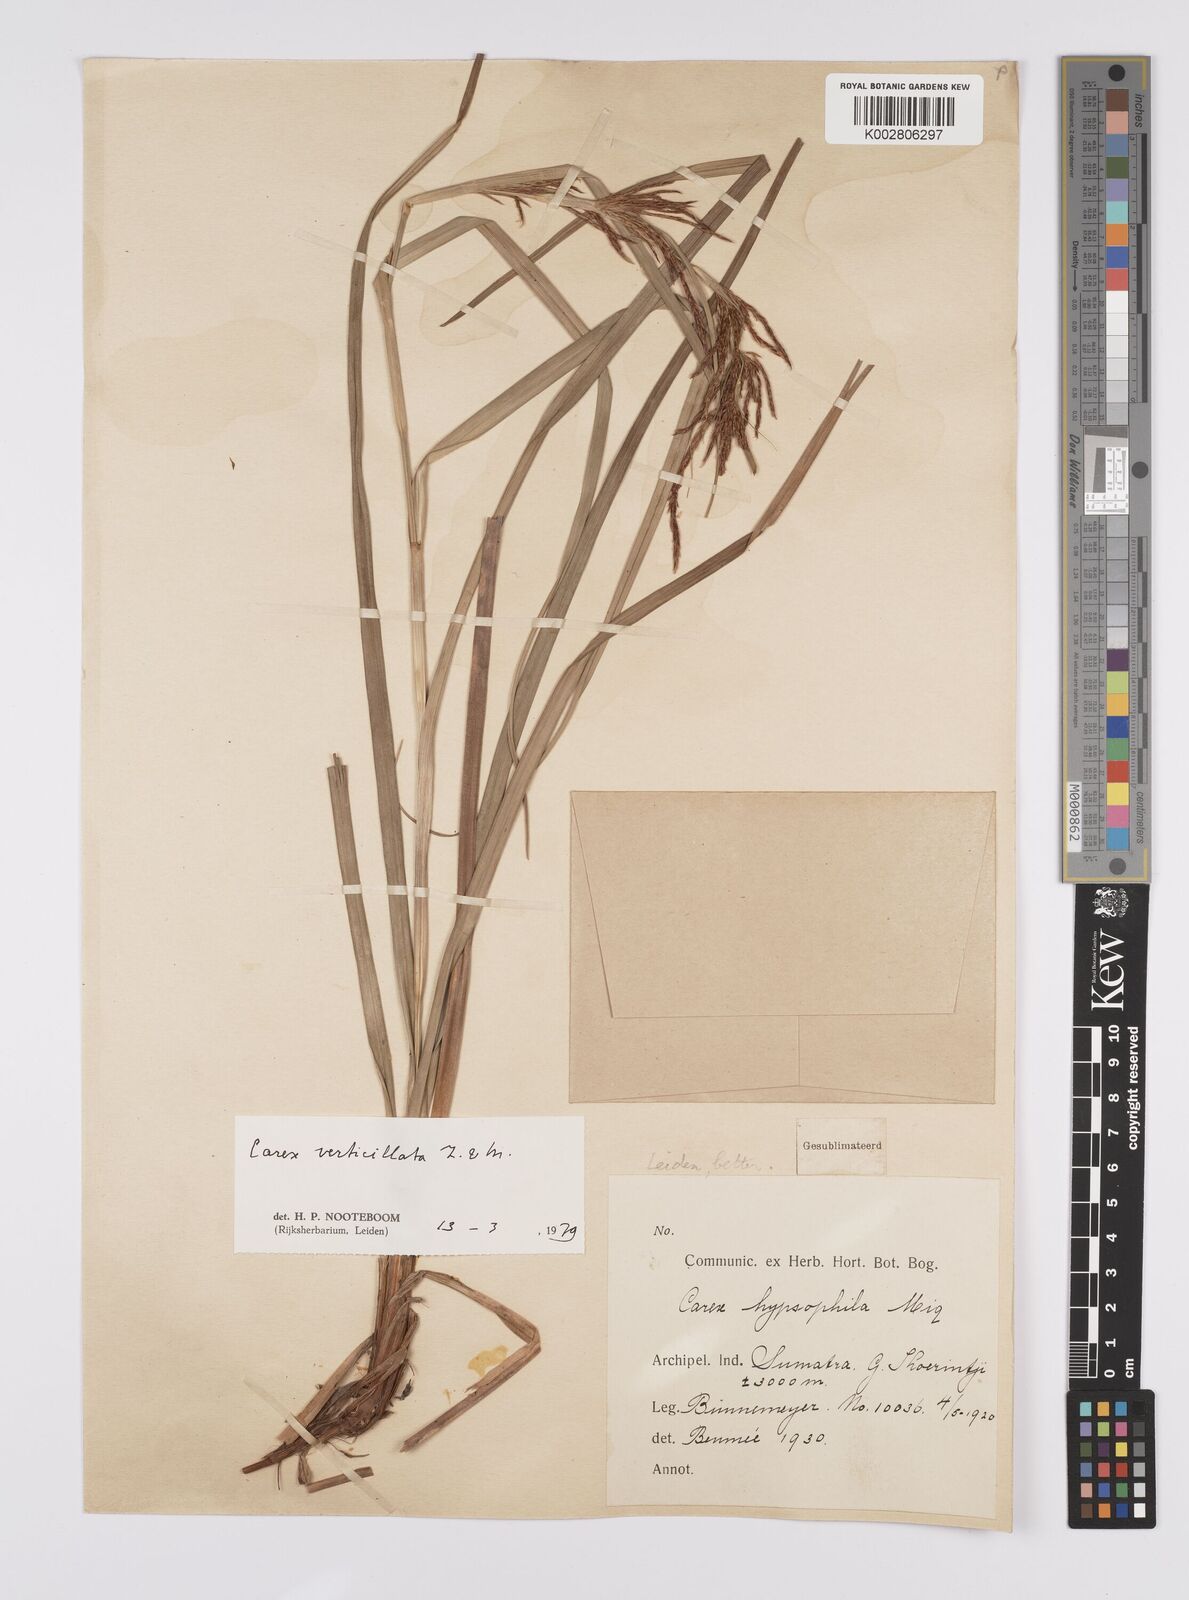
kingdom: Plantae
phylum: Tracheophyta
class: Liliopsida
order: Poales
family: Cyperaceae
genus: Carex
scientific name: Carex verticillata
